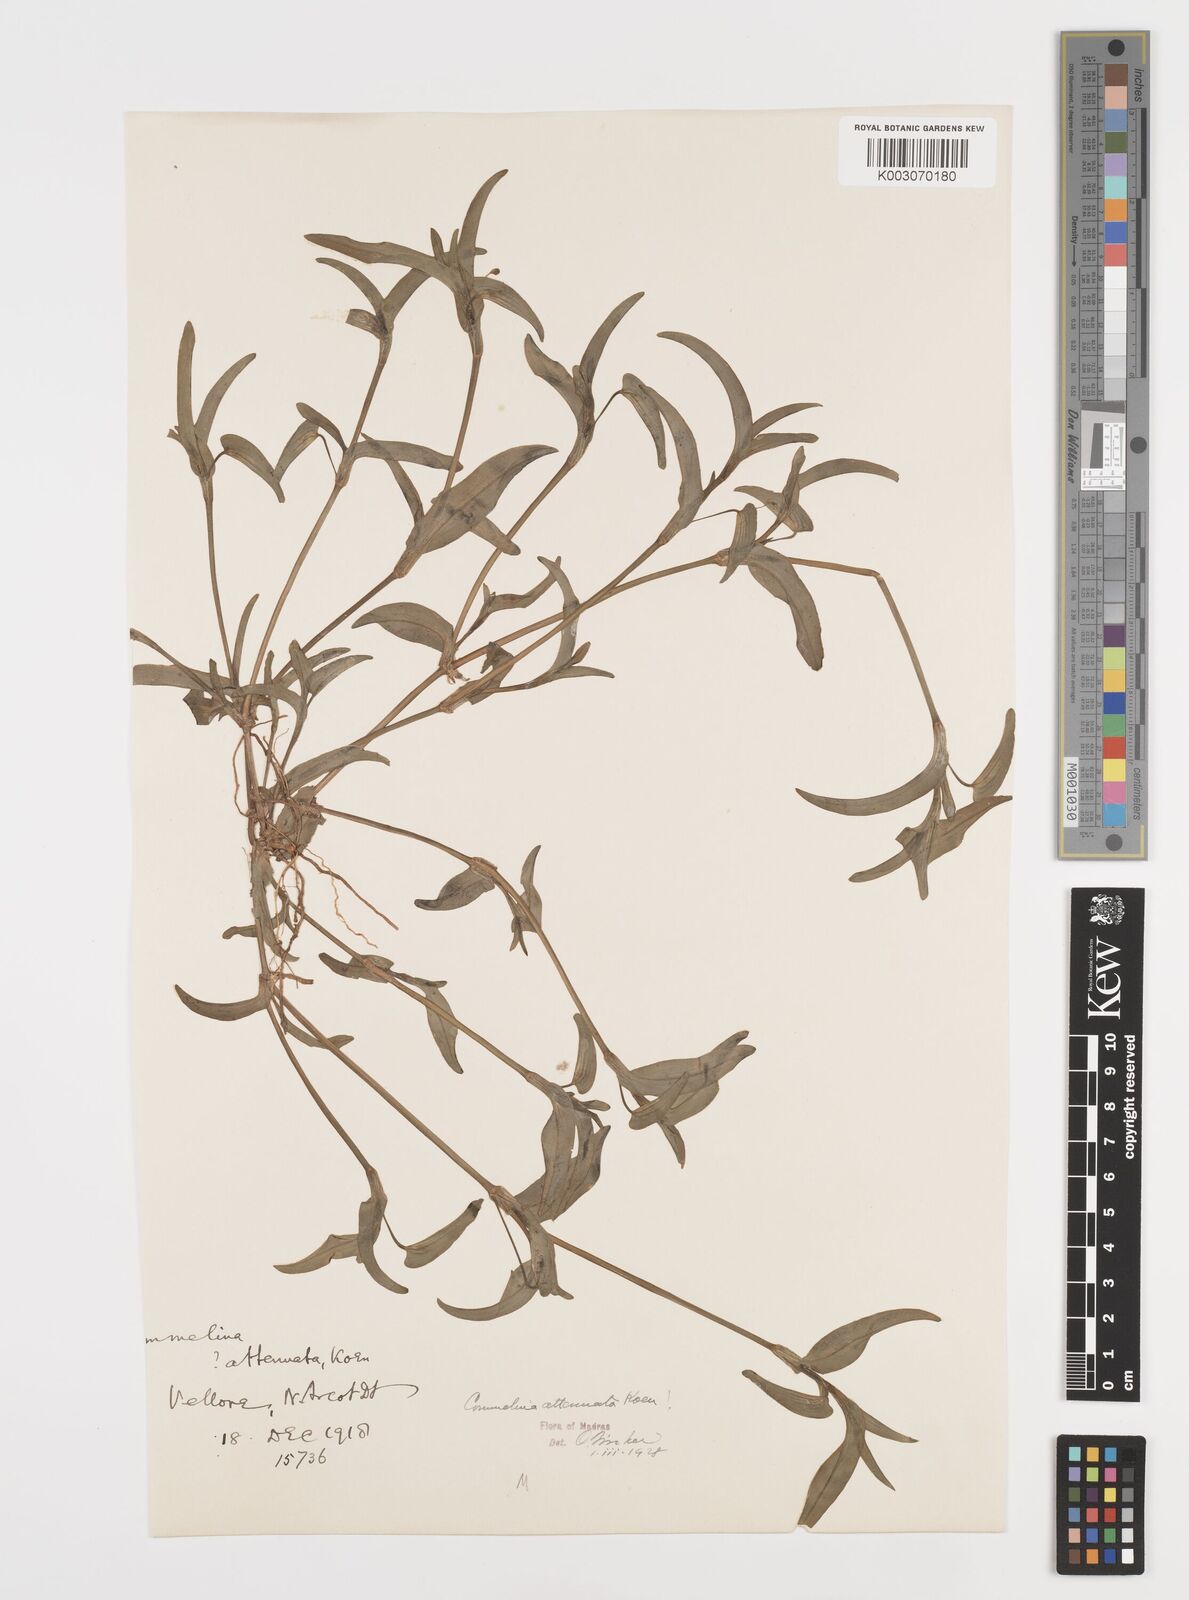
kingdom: Plantae
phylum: Tracheophyta
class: Liliopsida
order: Commelinales
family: Commelinaceae
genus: Commelina
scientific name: Commelina attenuata
